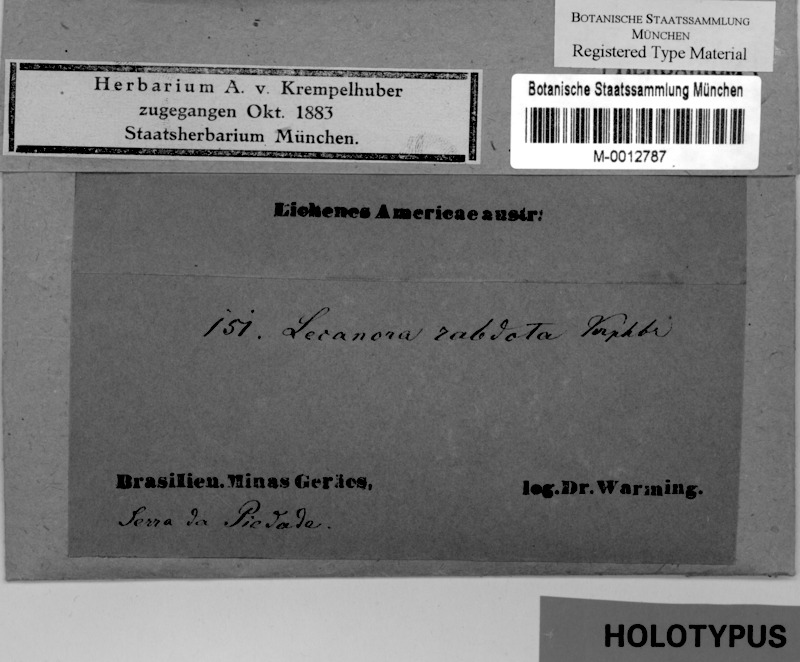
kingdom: Fungi
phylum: Ascomycota
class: Lecanoromycetes
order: Lecanorales
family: Lecanoraceae
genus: Lecanora
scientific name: Lecanora rabdota
